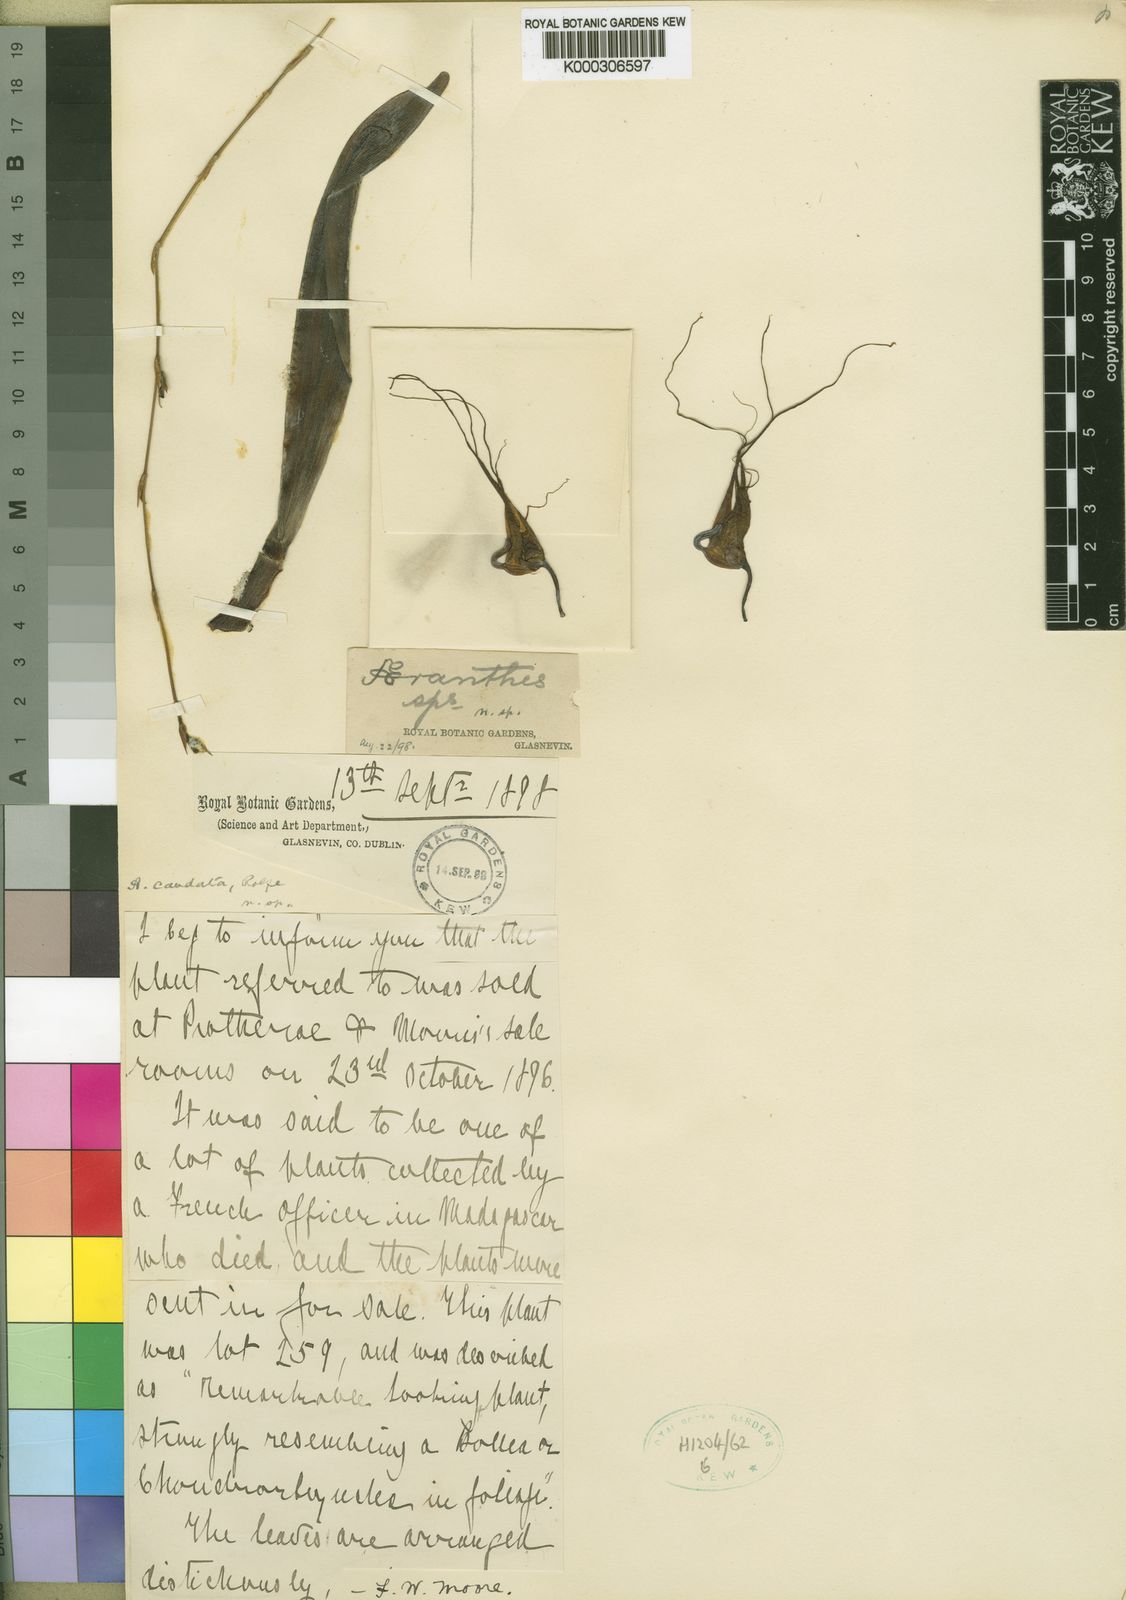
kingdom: Plantae
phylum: Tracheophyta
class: Liliopsida
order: Asparagales
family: Orchidaceae
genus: Aeranthes
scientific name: Aeranthes caudata
